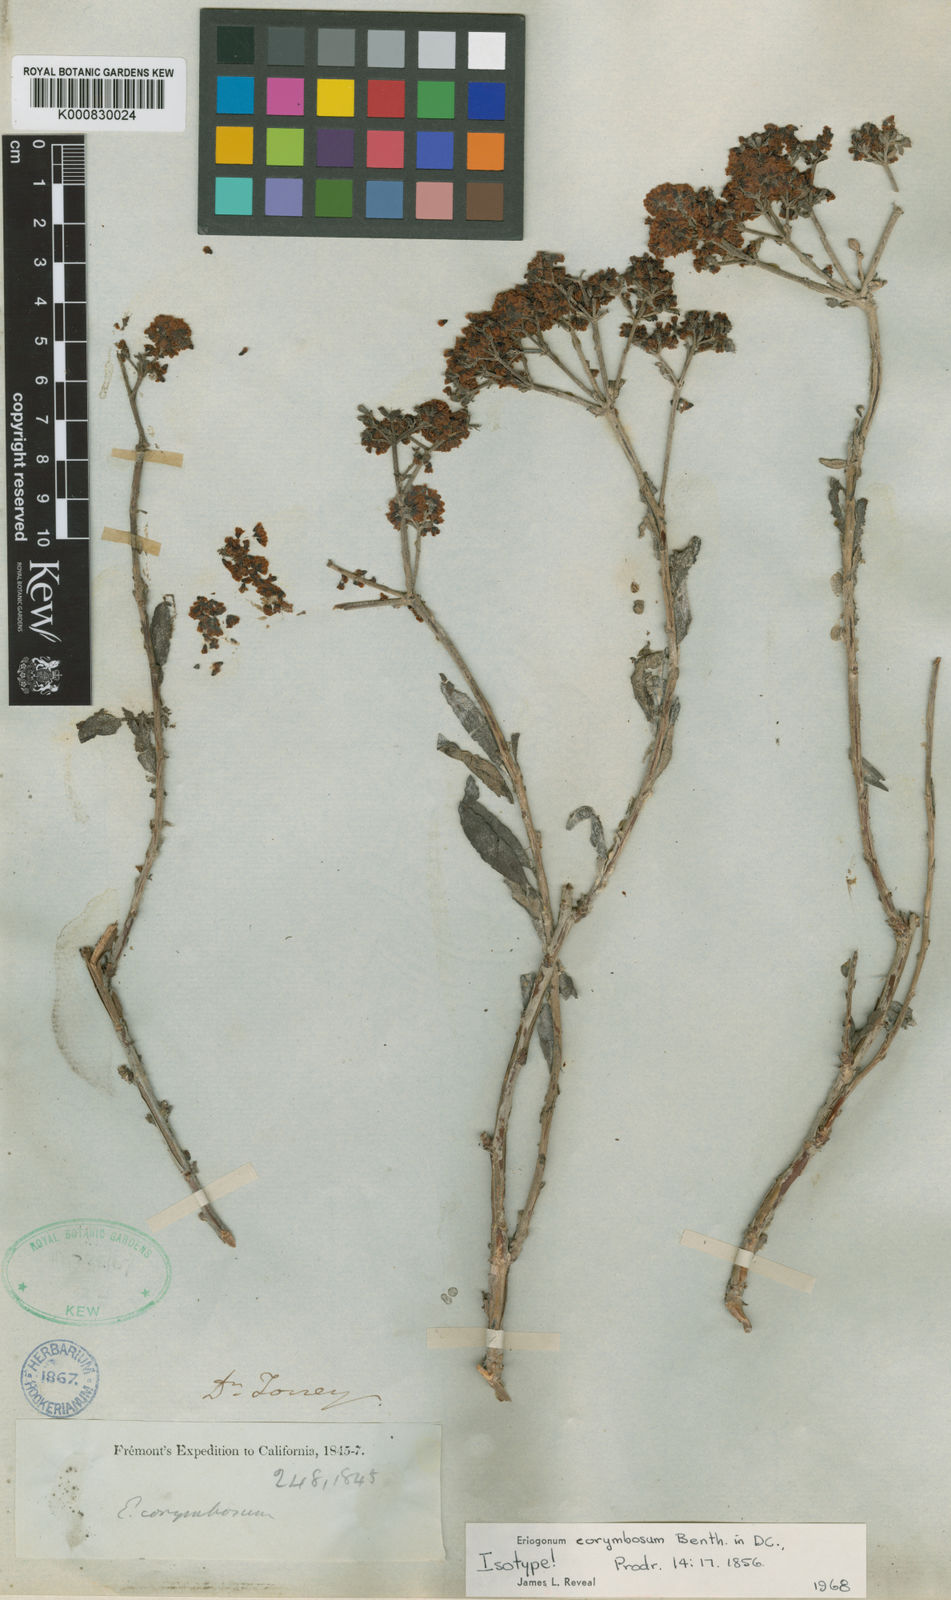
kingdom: Plantae
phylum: Tracheophyta
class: Magnoliopsida
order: Caryophyllales
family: Polygonaceae
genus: Eriogonum
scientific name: Eriogonum corymbosum
